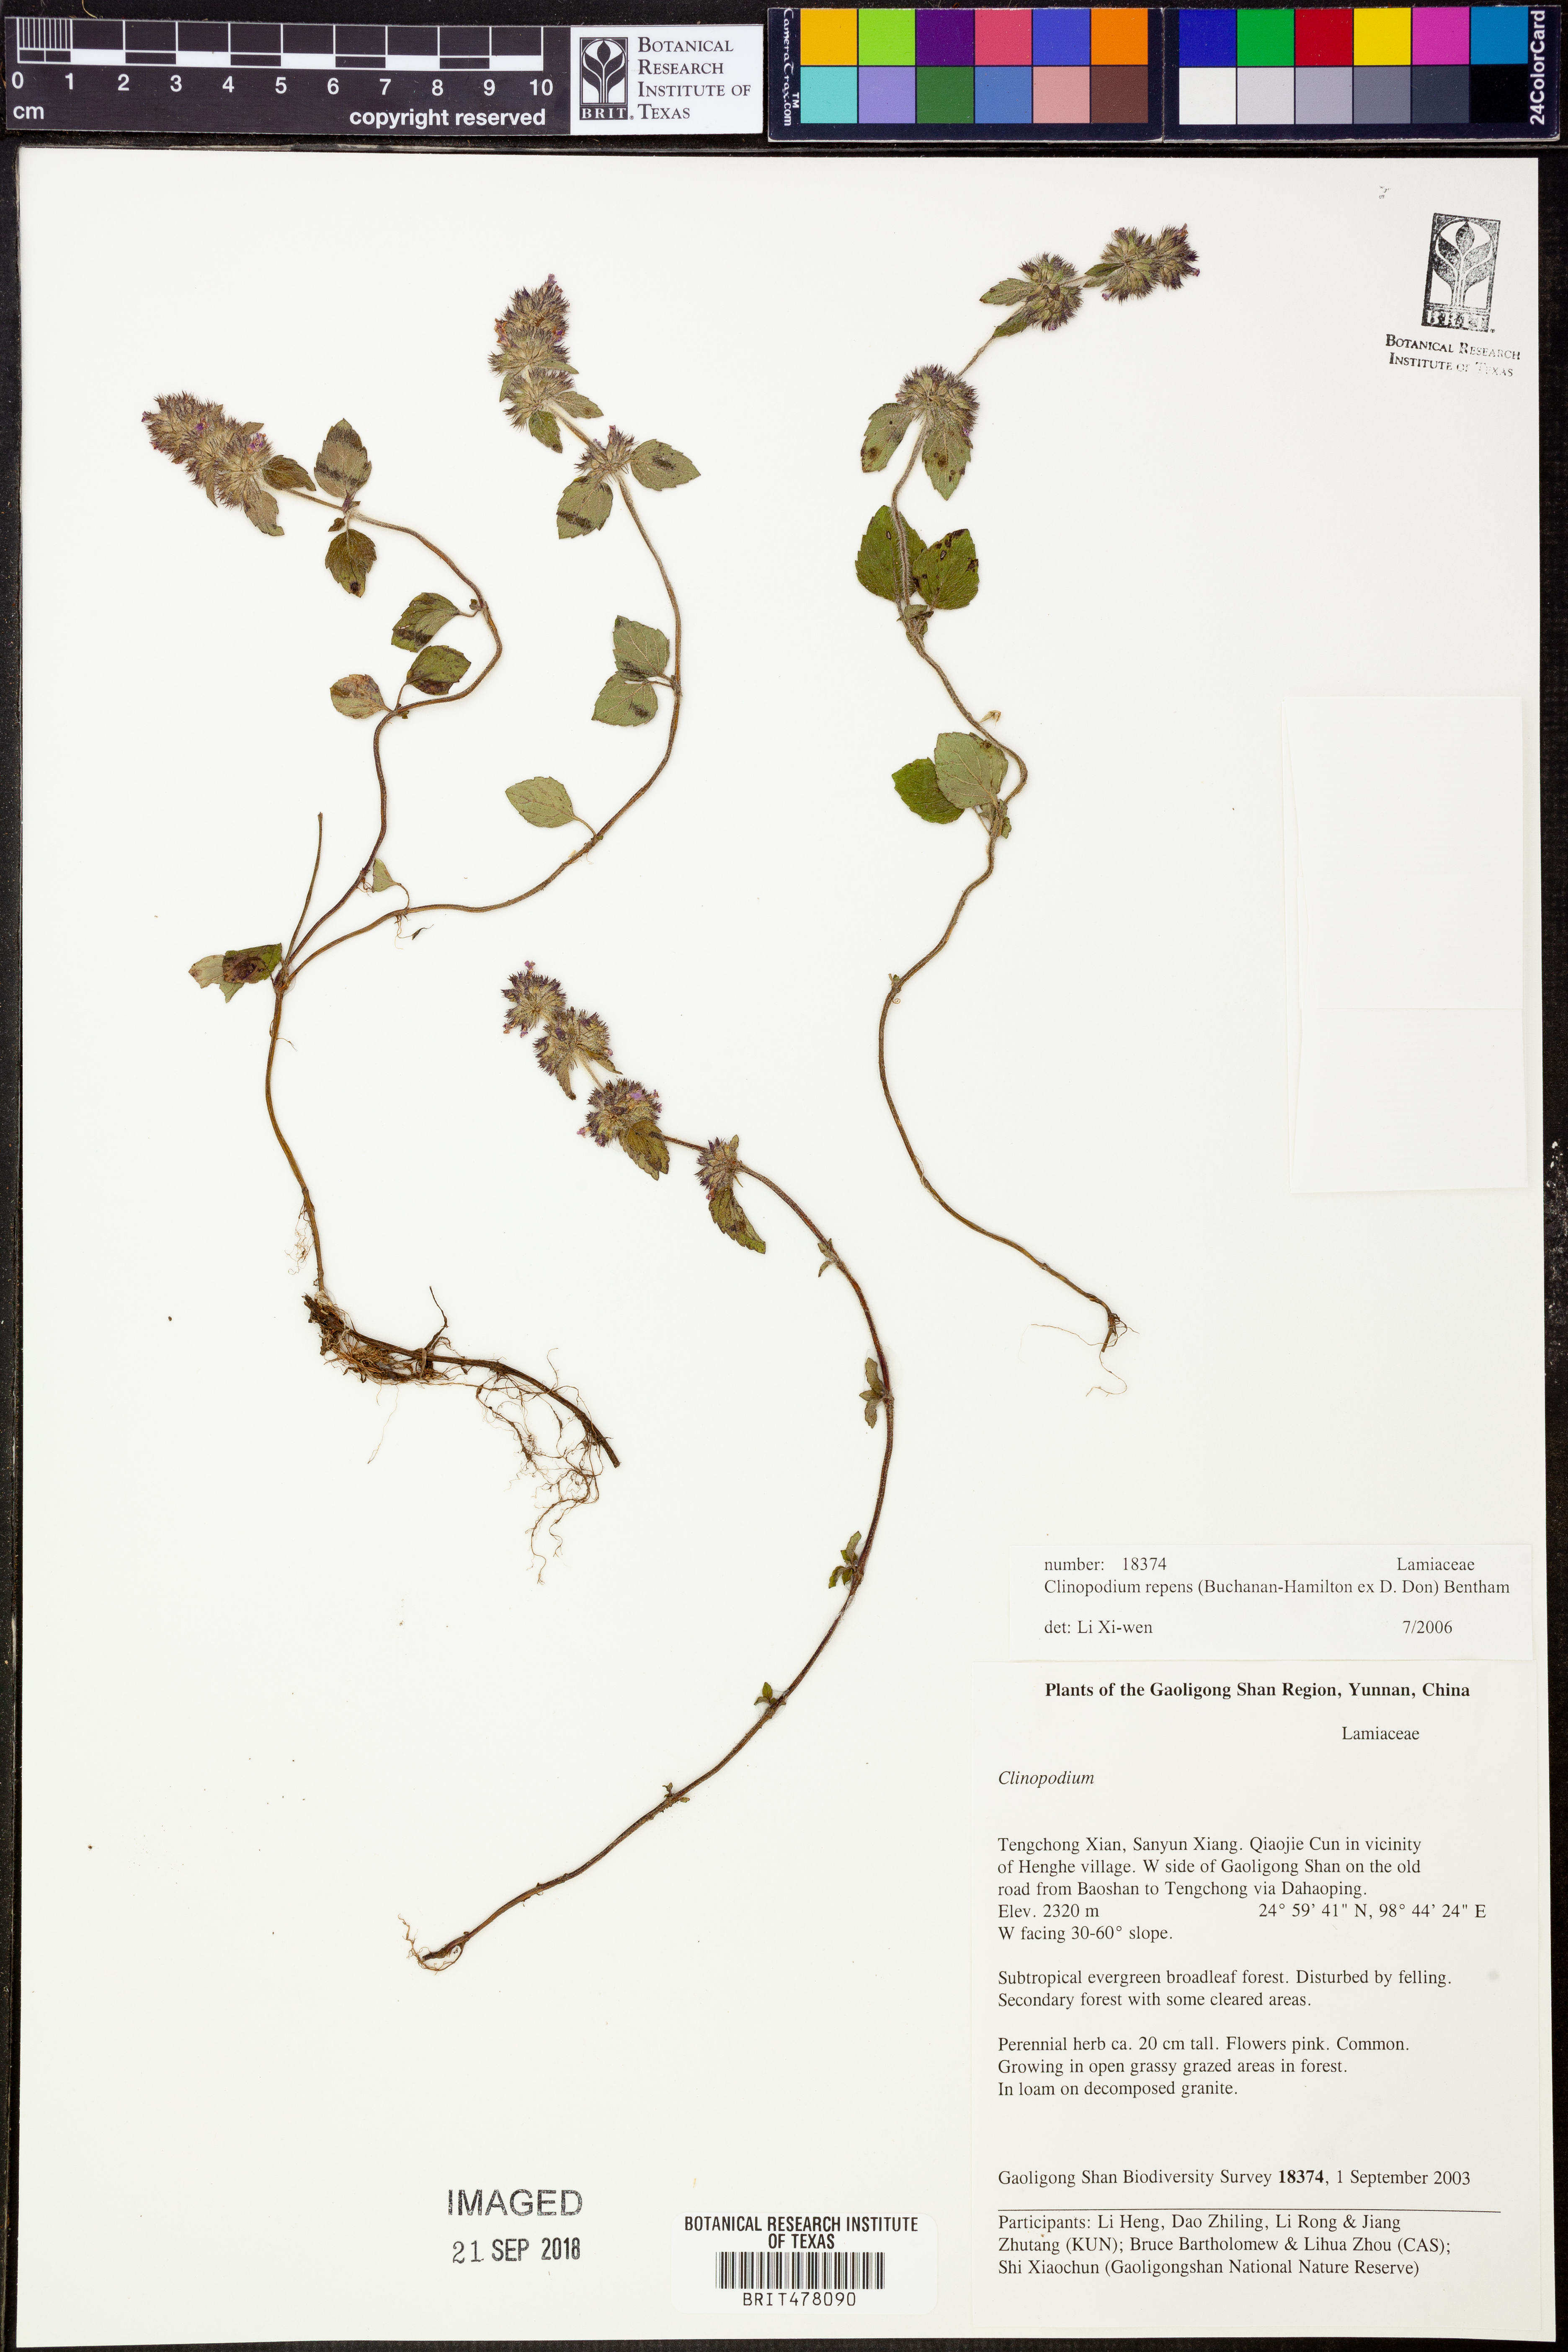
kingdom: Plantae
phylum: Tracheophyta
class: Magnoliopsida
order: Lamiales
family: Lamiaceae
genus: Hyptis
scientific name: Hyptis radicans
